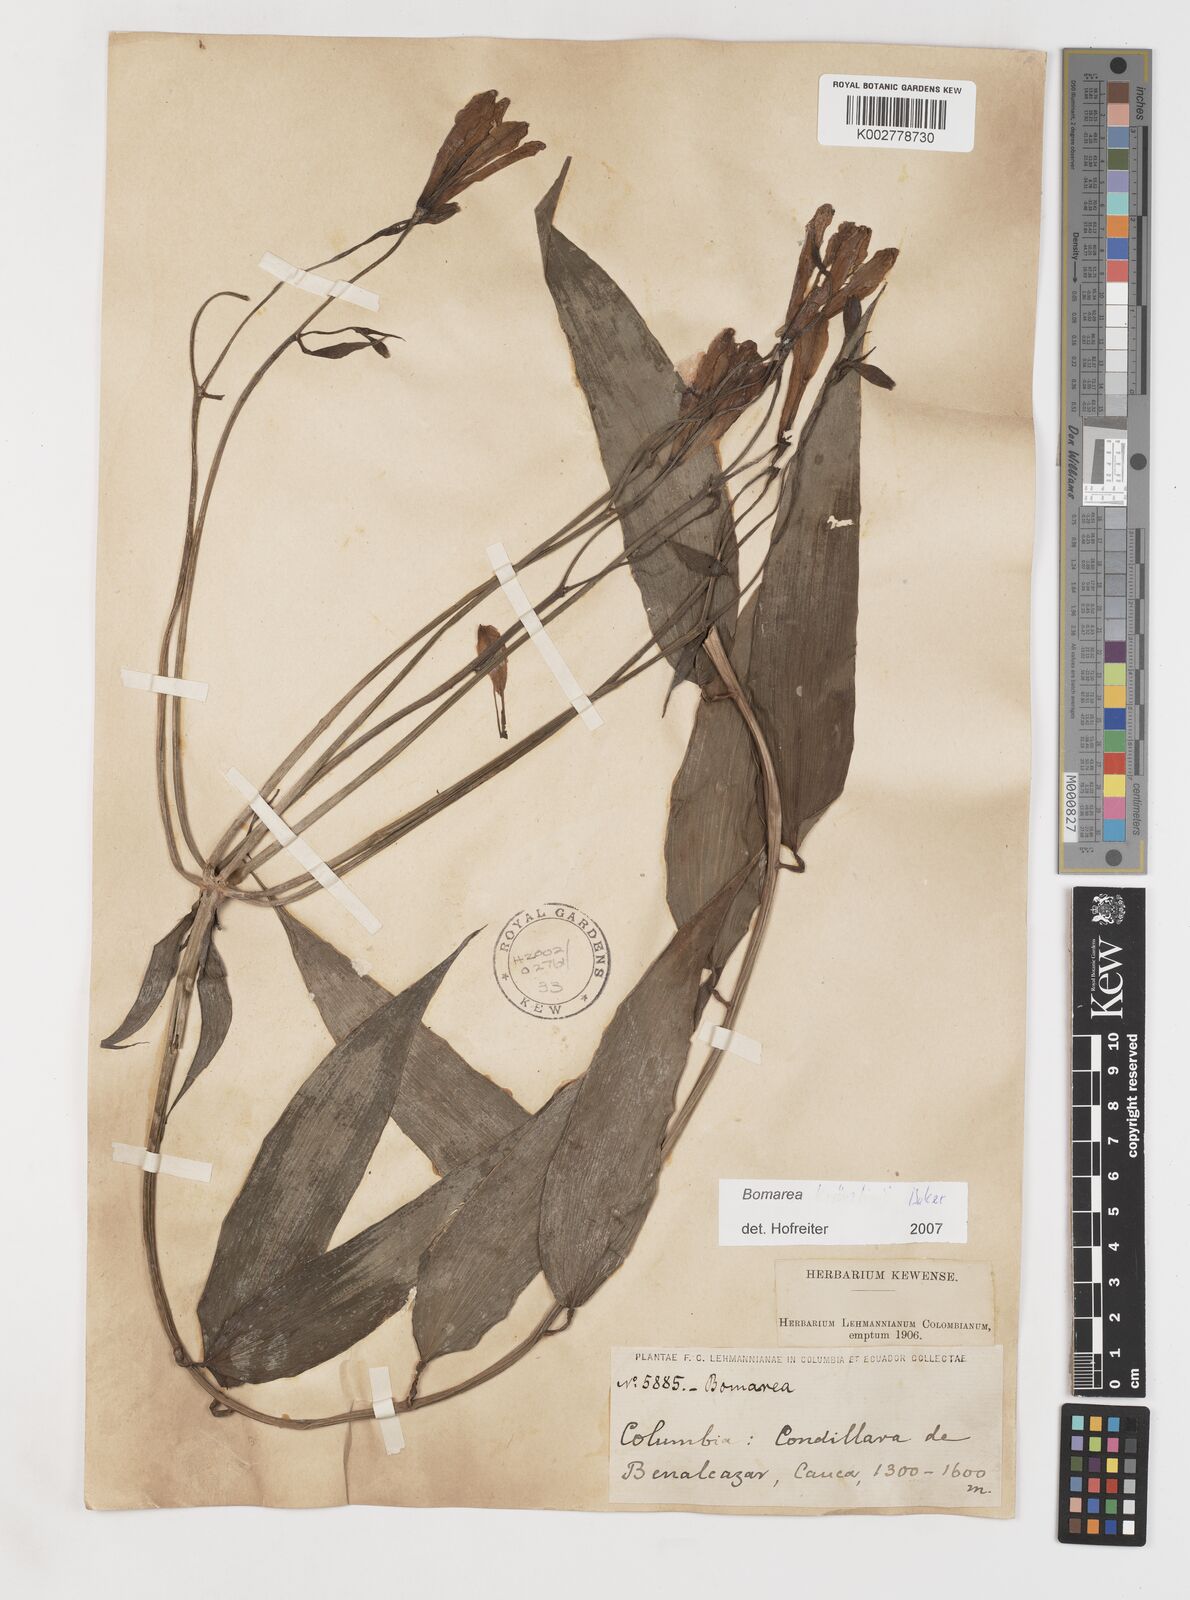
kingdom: Plantae
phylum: Tracheophyta
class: Liliopsida
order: Liliales
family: Alstroemeriaceae
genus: Bomarea
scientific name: Bomarea kraenzlinii
